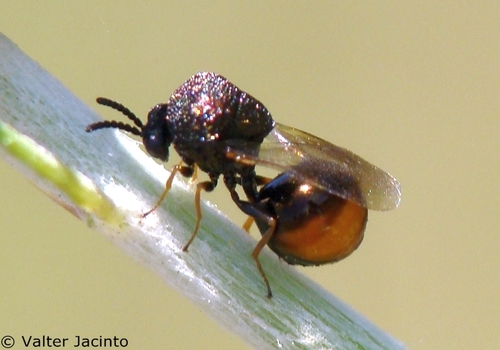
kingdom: Animalia
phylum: Arthropoda
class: Insecta
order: Hymenoptera
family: Eucharitidae
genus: Eucharis
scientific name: Eucharis adscendens
